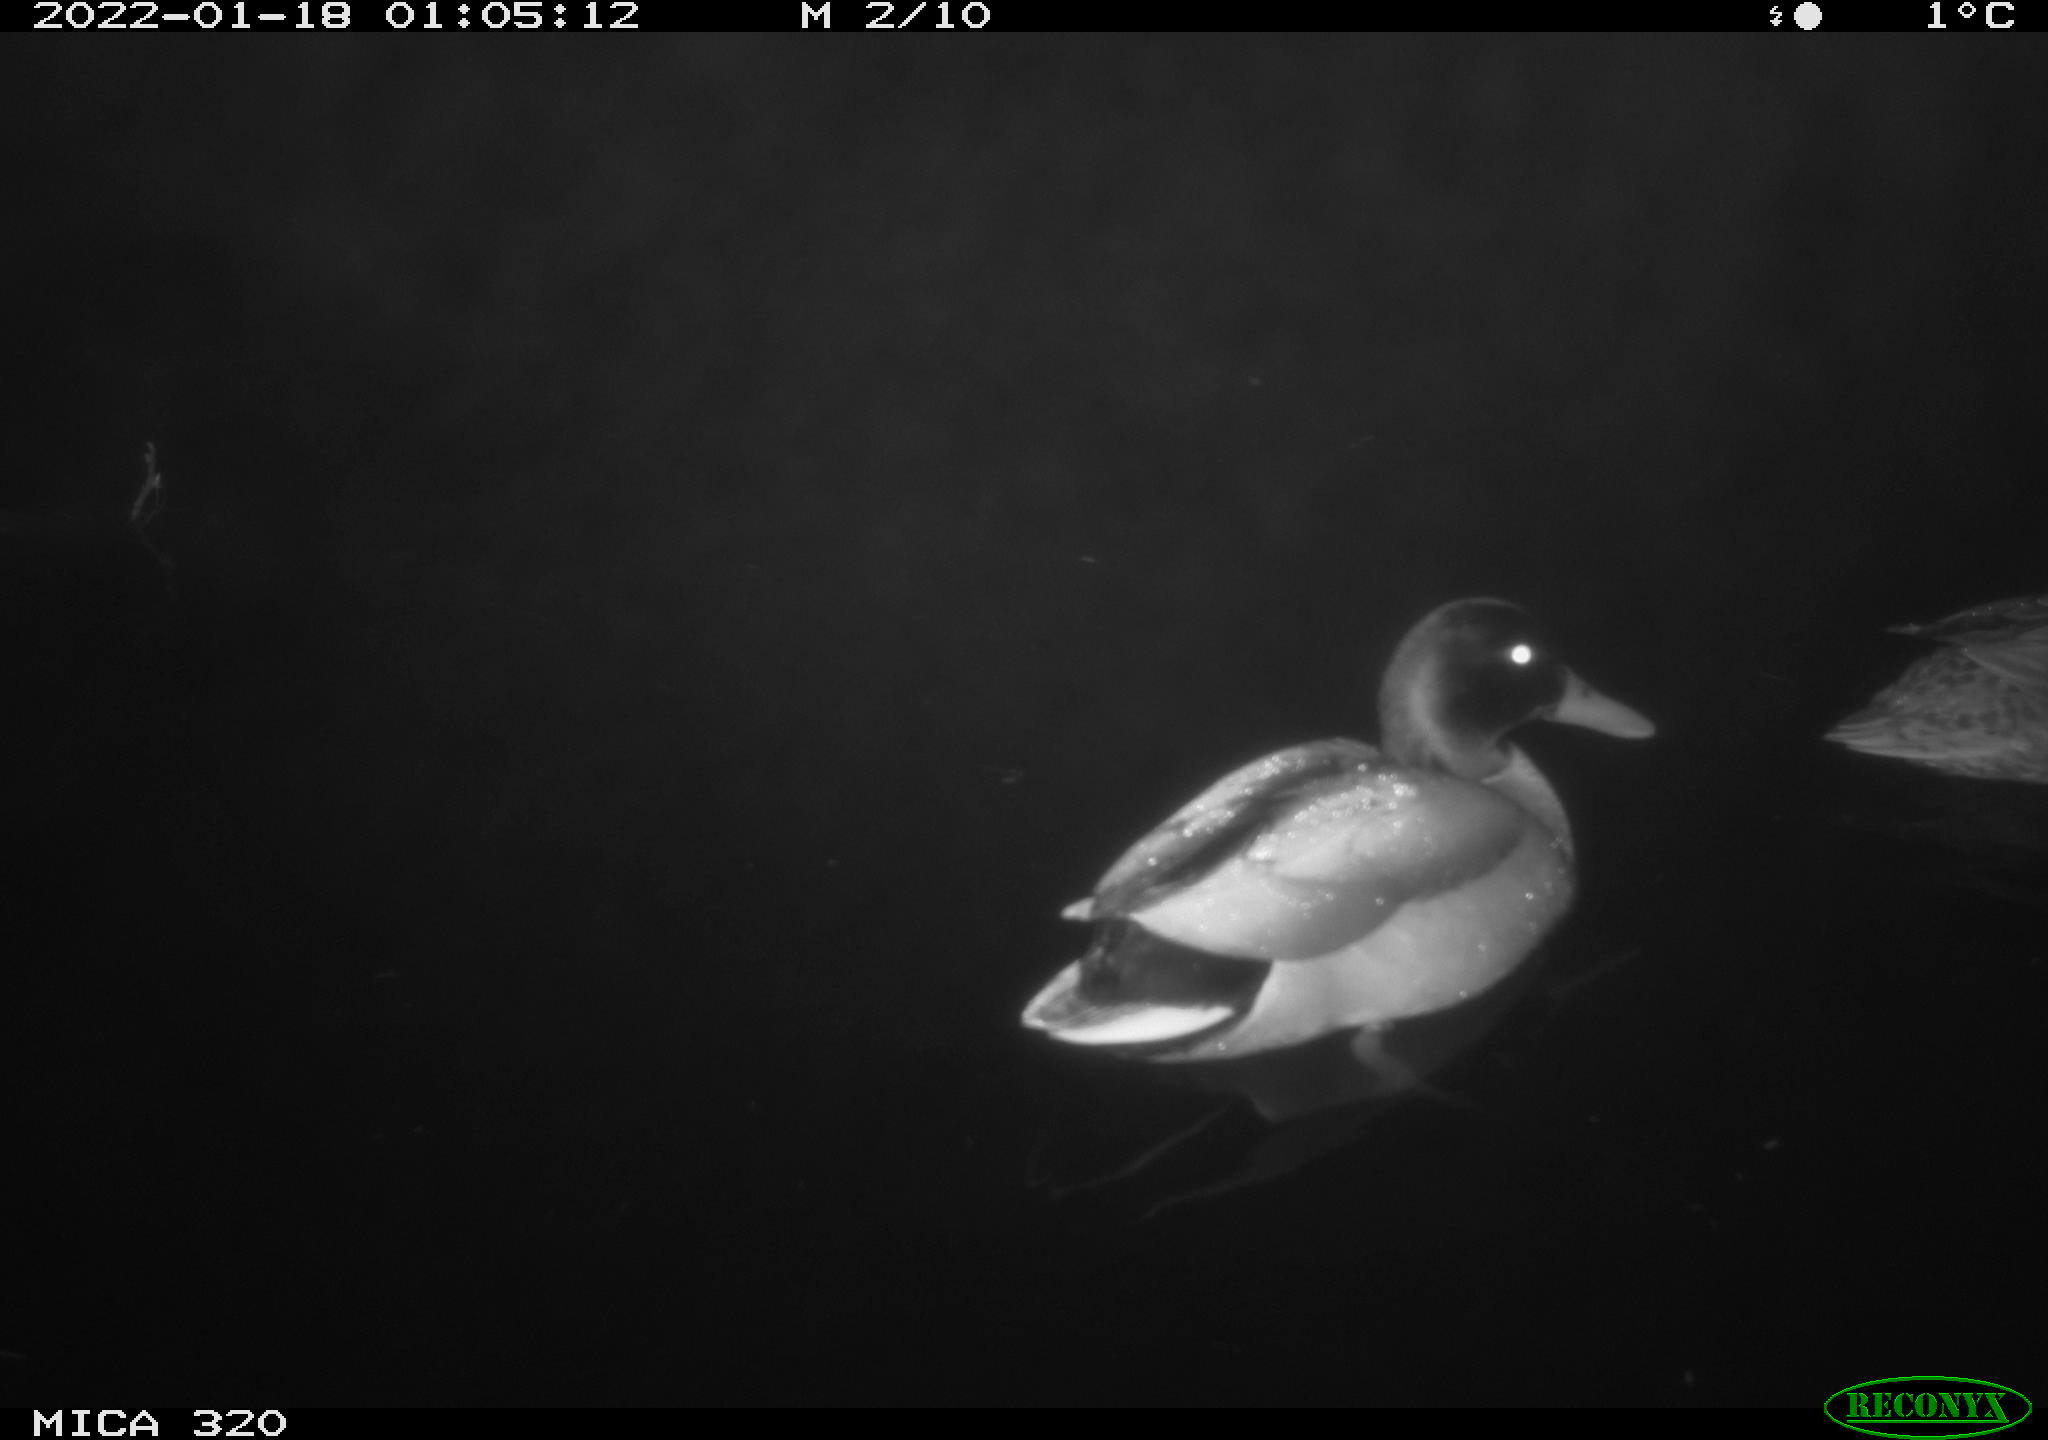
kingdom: Animalia
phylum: Chordata
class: Aves
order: Anseriformes
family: Anatidae
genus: Anas
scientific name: Anas
